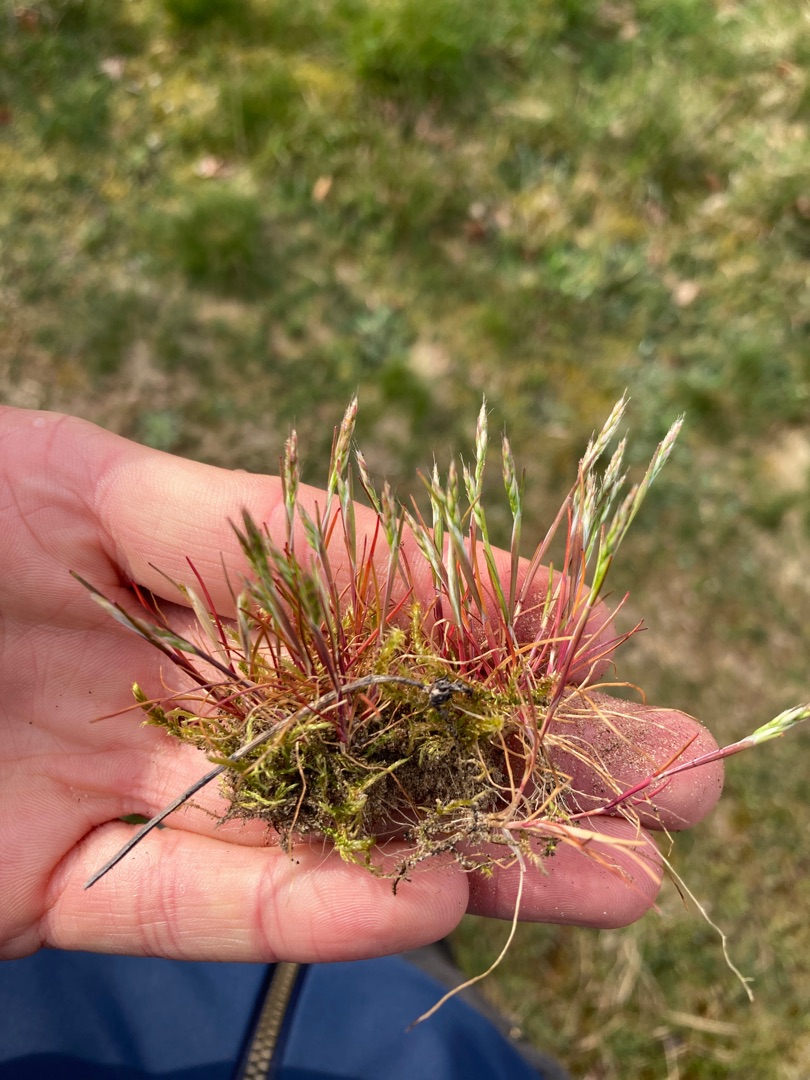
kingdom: Plantae
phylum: Tracheophyta
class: Liliopsida
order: Poales
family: Poaceae
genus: Aira
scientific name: Aira praecox
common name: Tidlig dværgbunke
